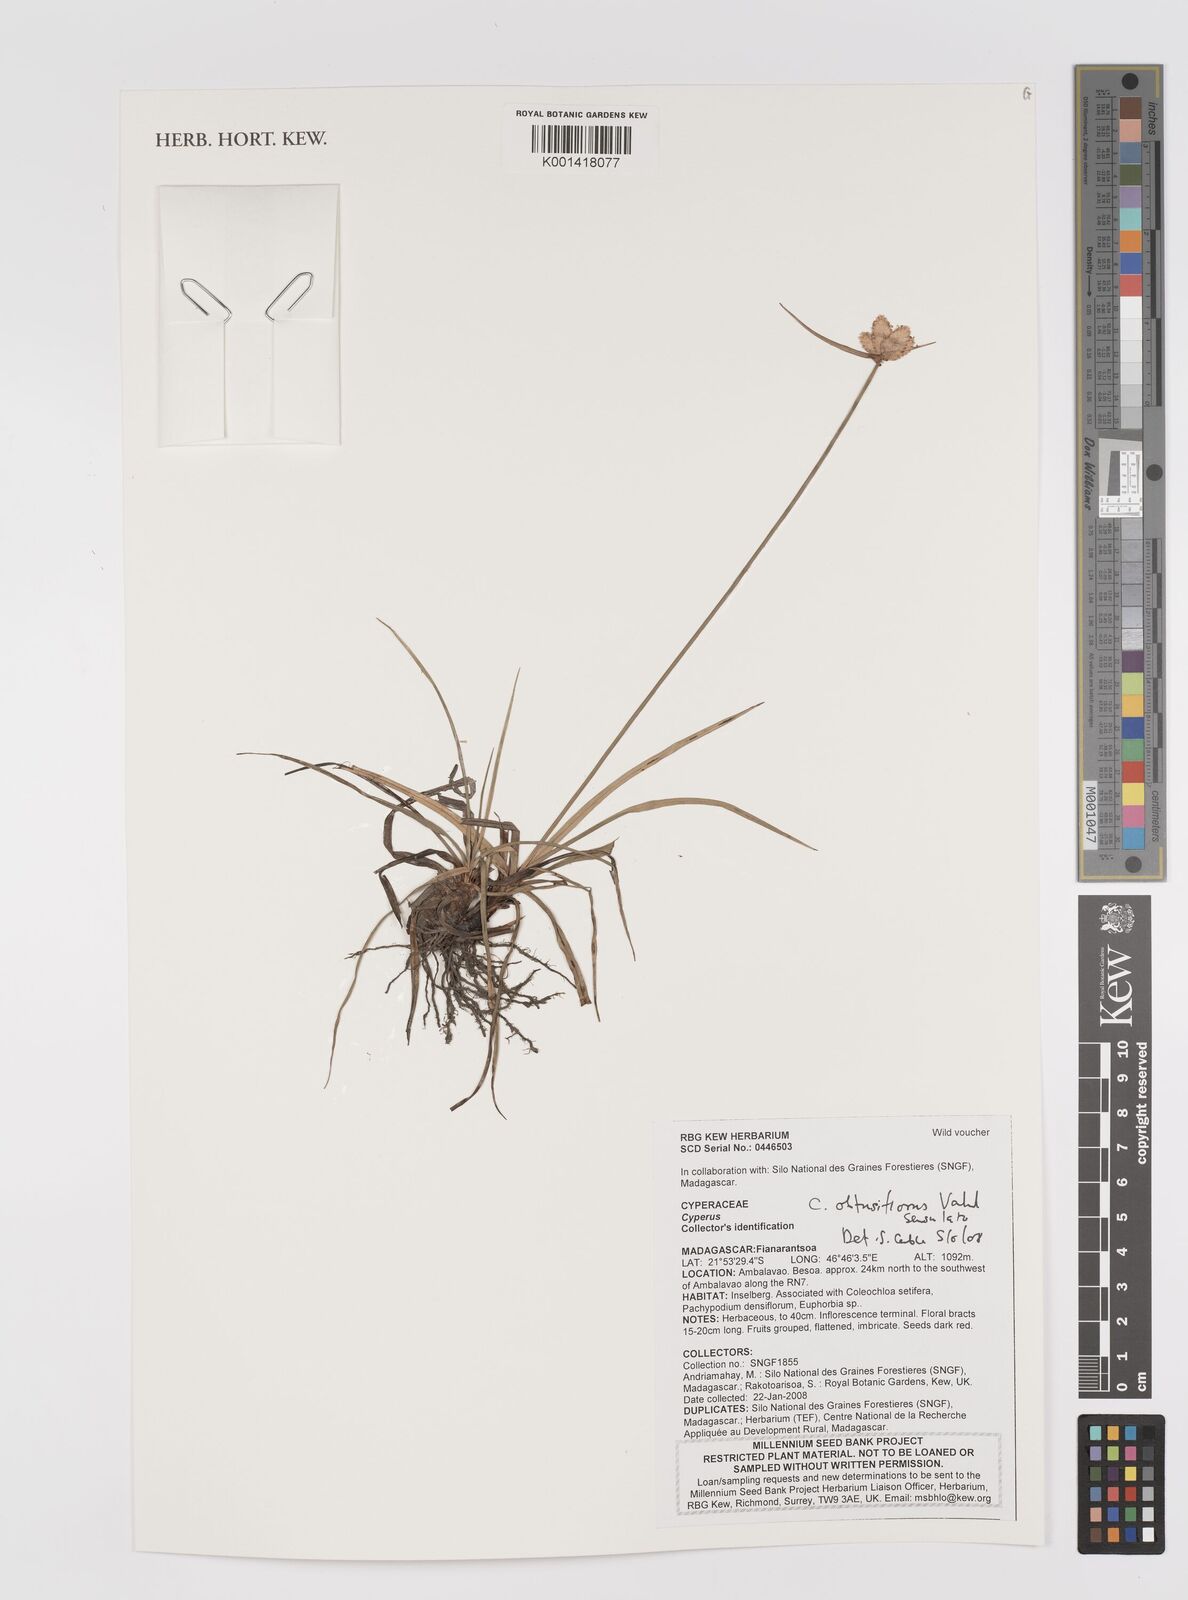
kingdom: Plantae
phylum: Tracheophyta
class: Liliopsida
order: Poales
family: Cyperaceae
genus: Cyperus
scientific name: Cyperus niveus
